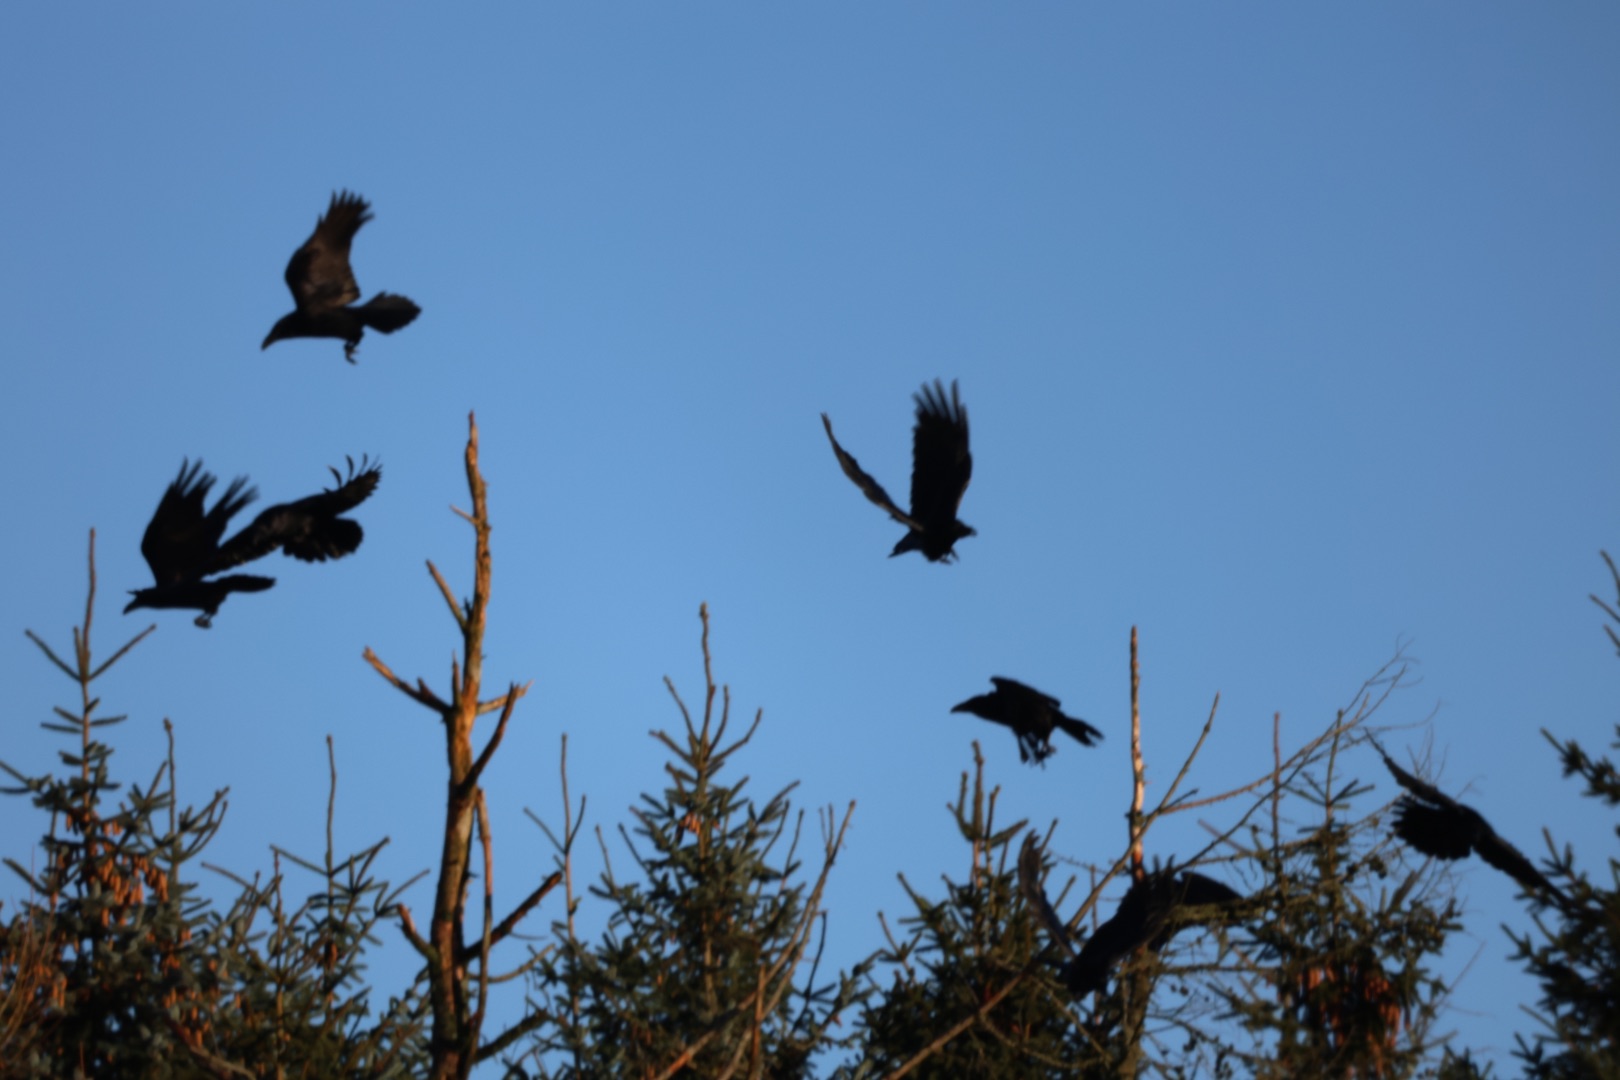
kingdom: Animalia
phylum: Chordata
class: Aves
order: Passeriformes
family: Corvidae
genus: Corvus
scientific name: Corvus corax
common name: Ravn
